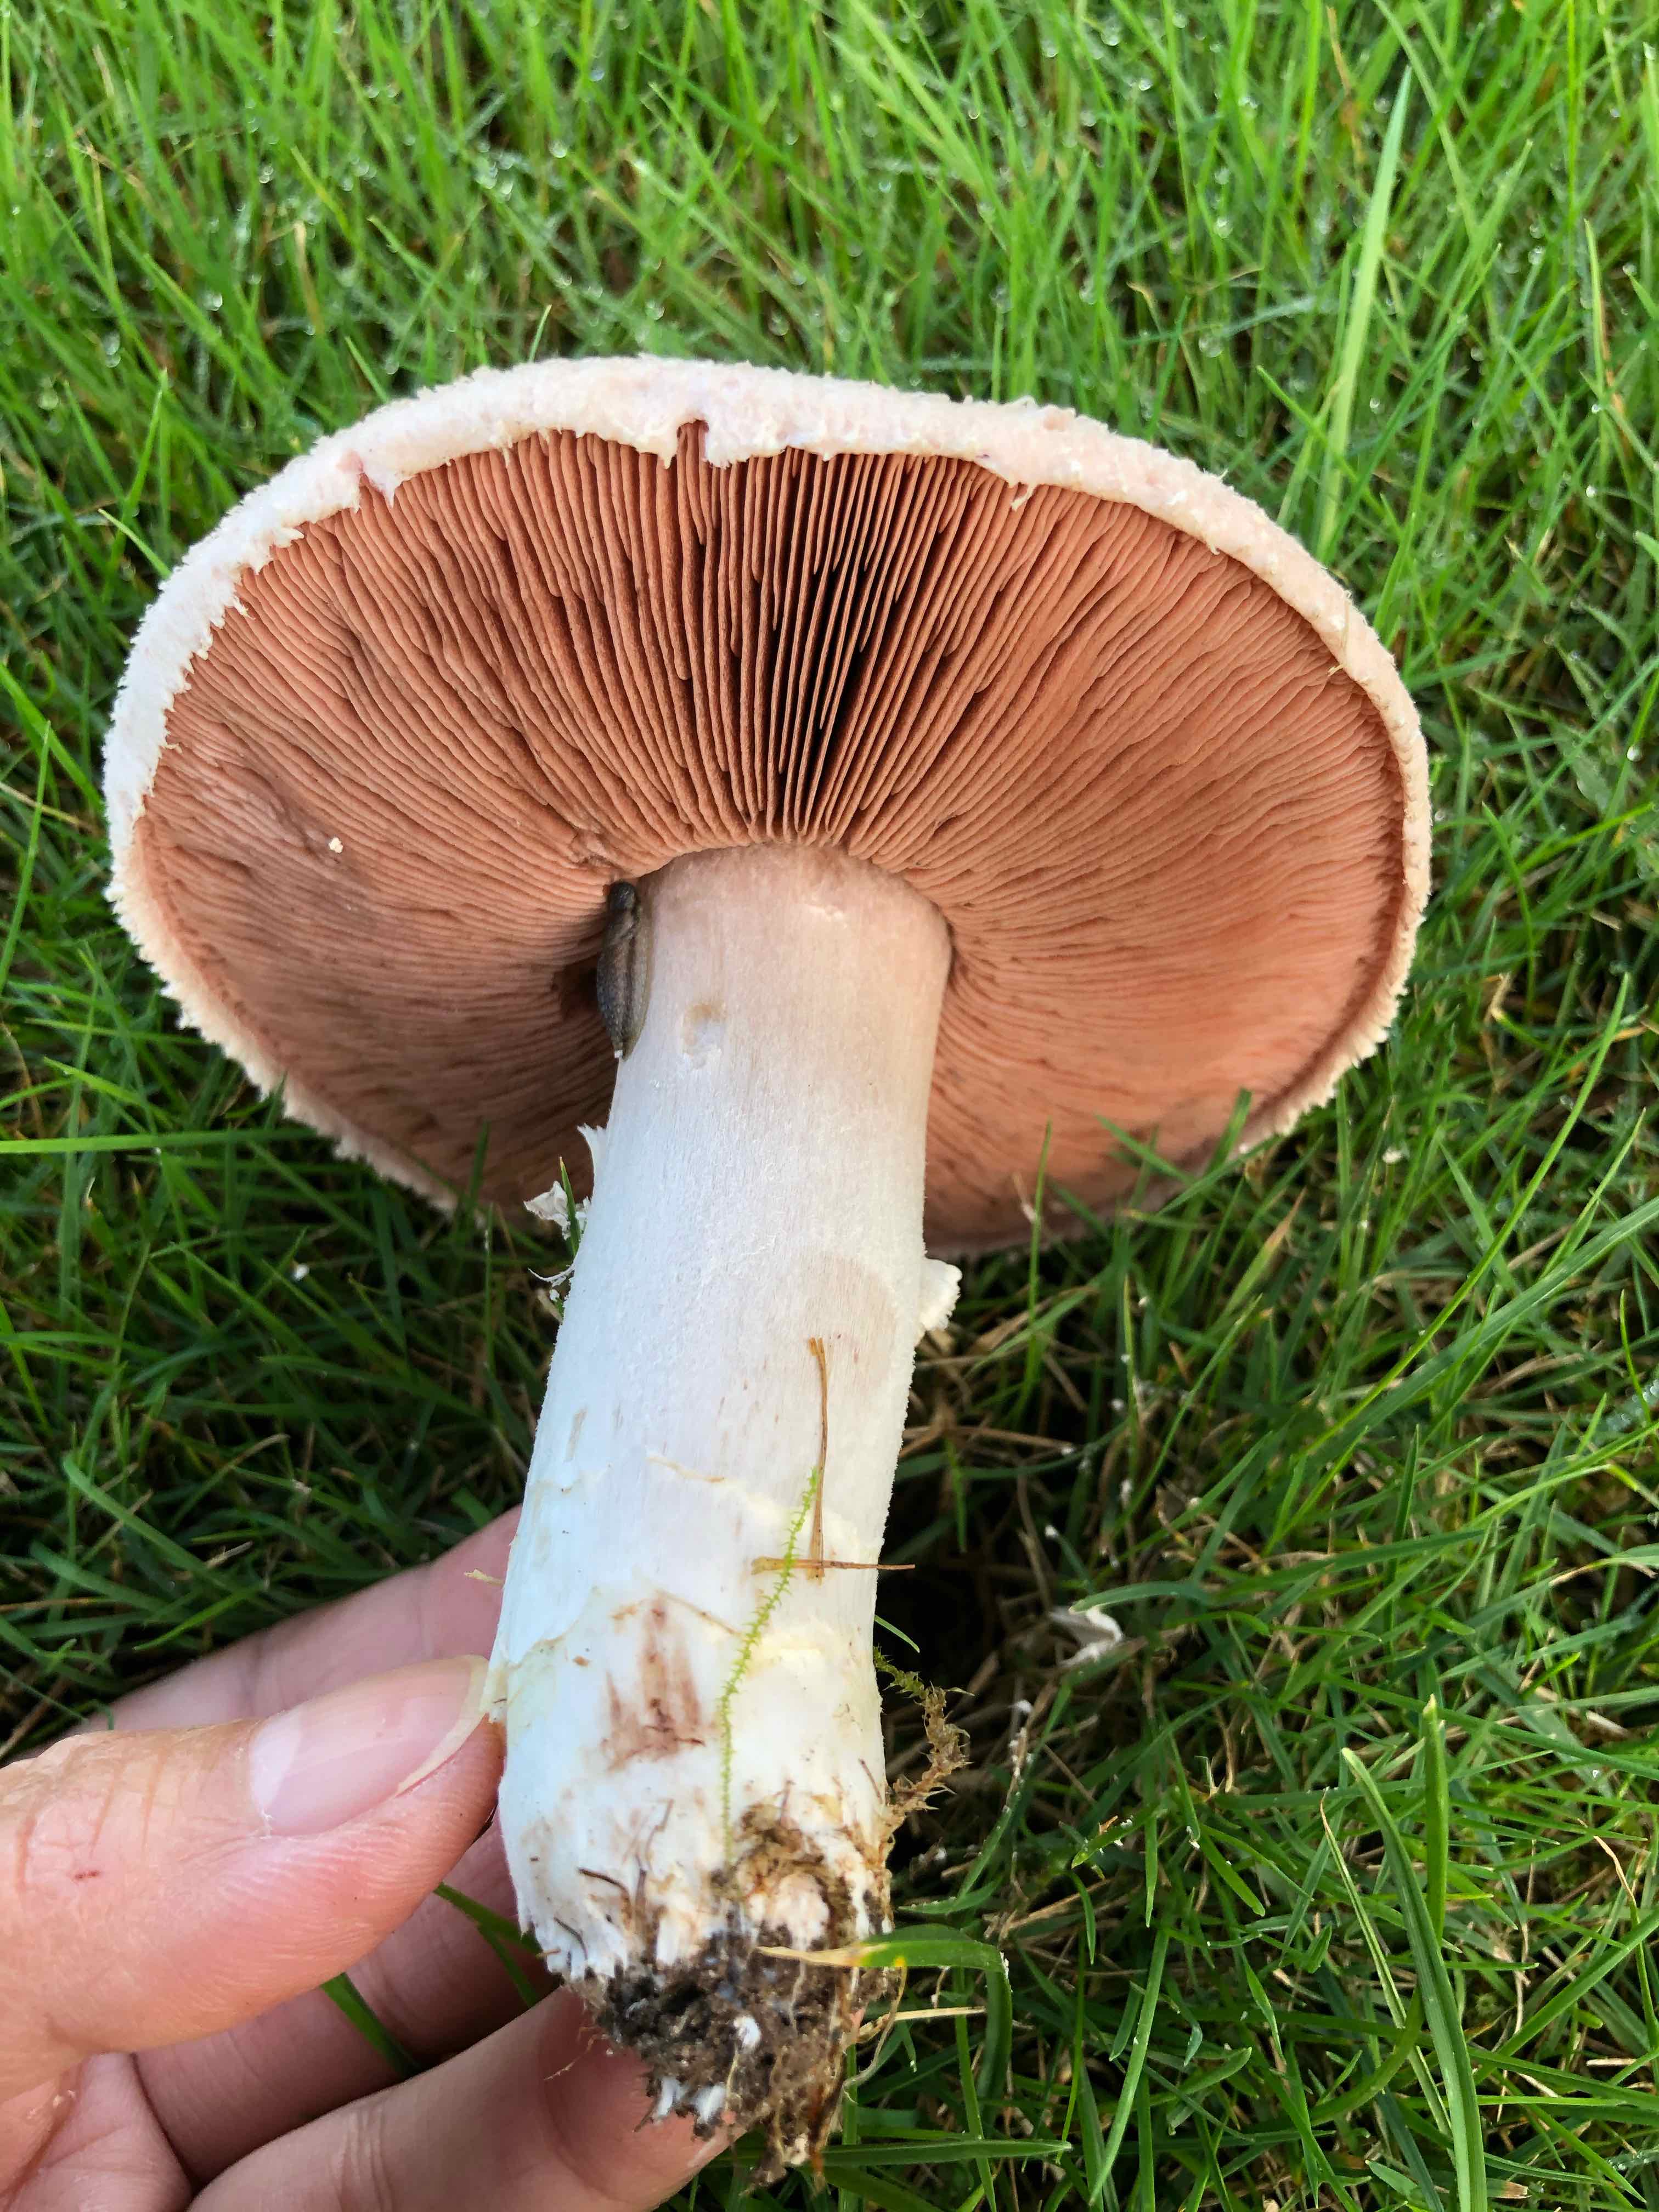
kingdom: Fungi
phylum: Basidiomycota
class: Agaricomycetes
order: Agaricales
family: Agaricaceae
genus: Agaricus
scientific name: Agaricus campestris
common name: mark-champignon
